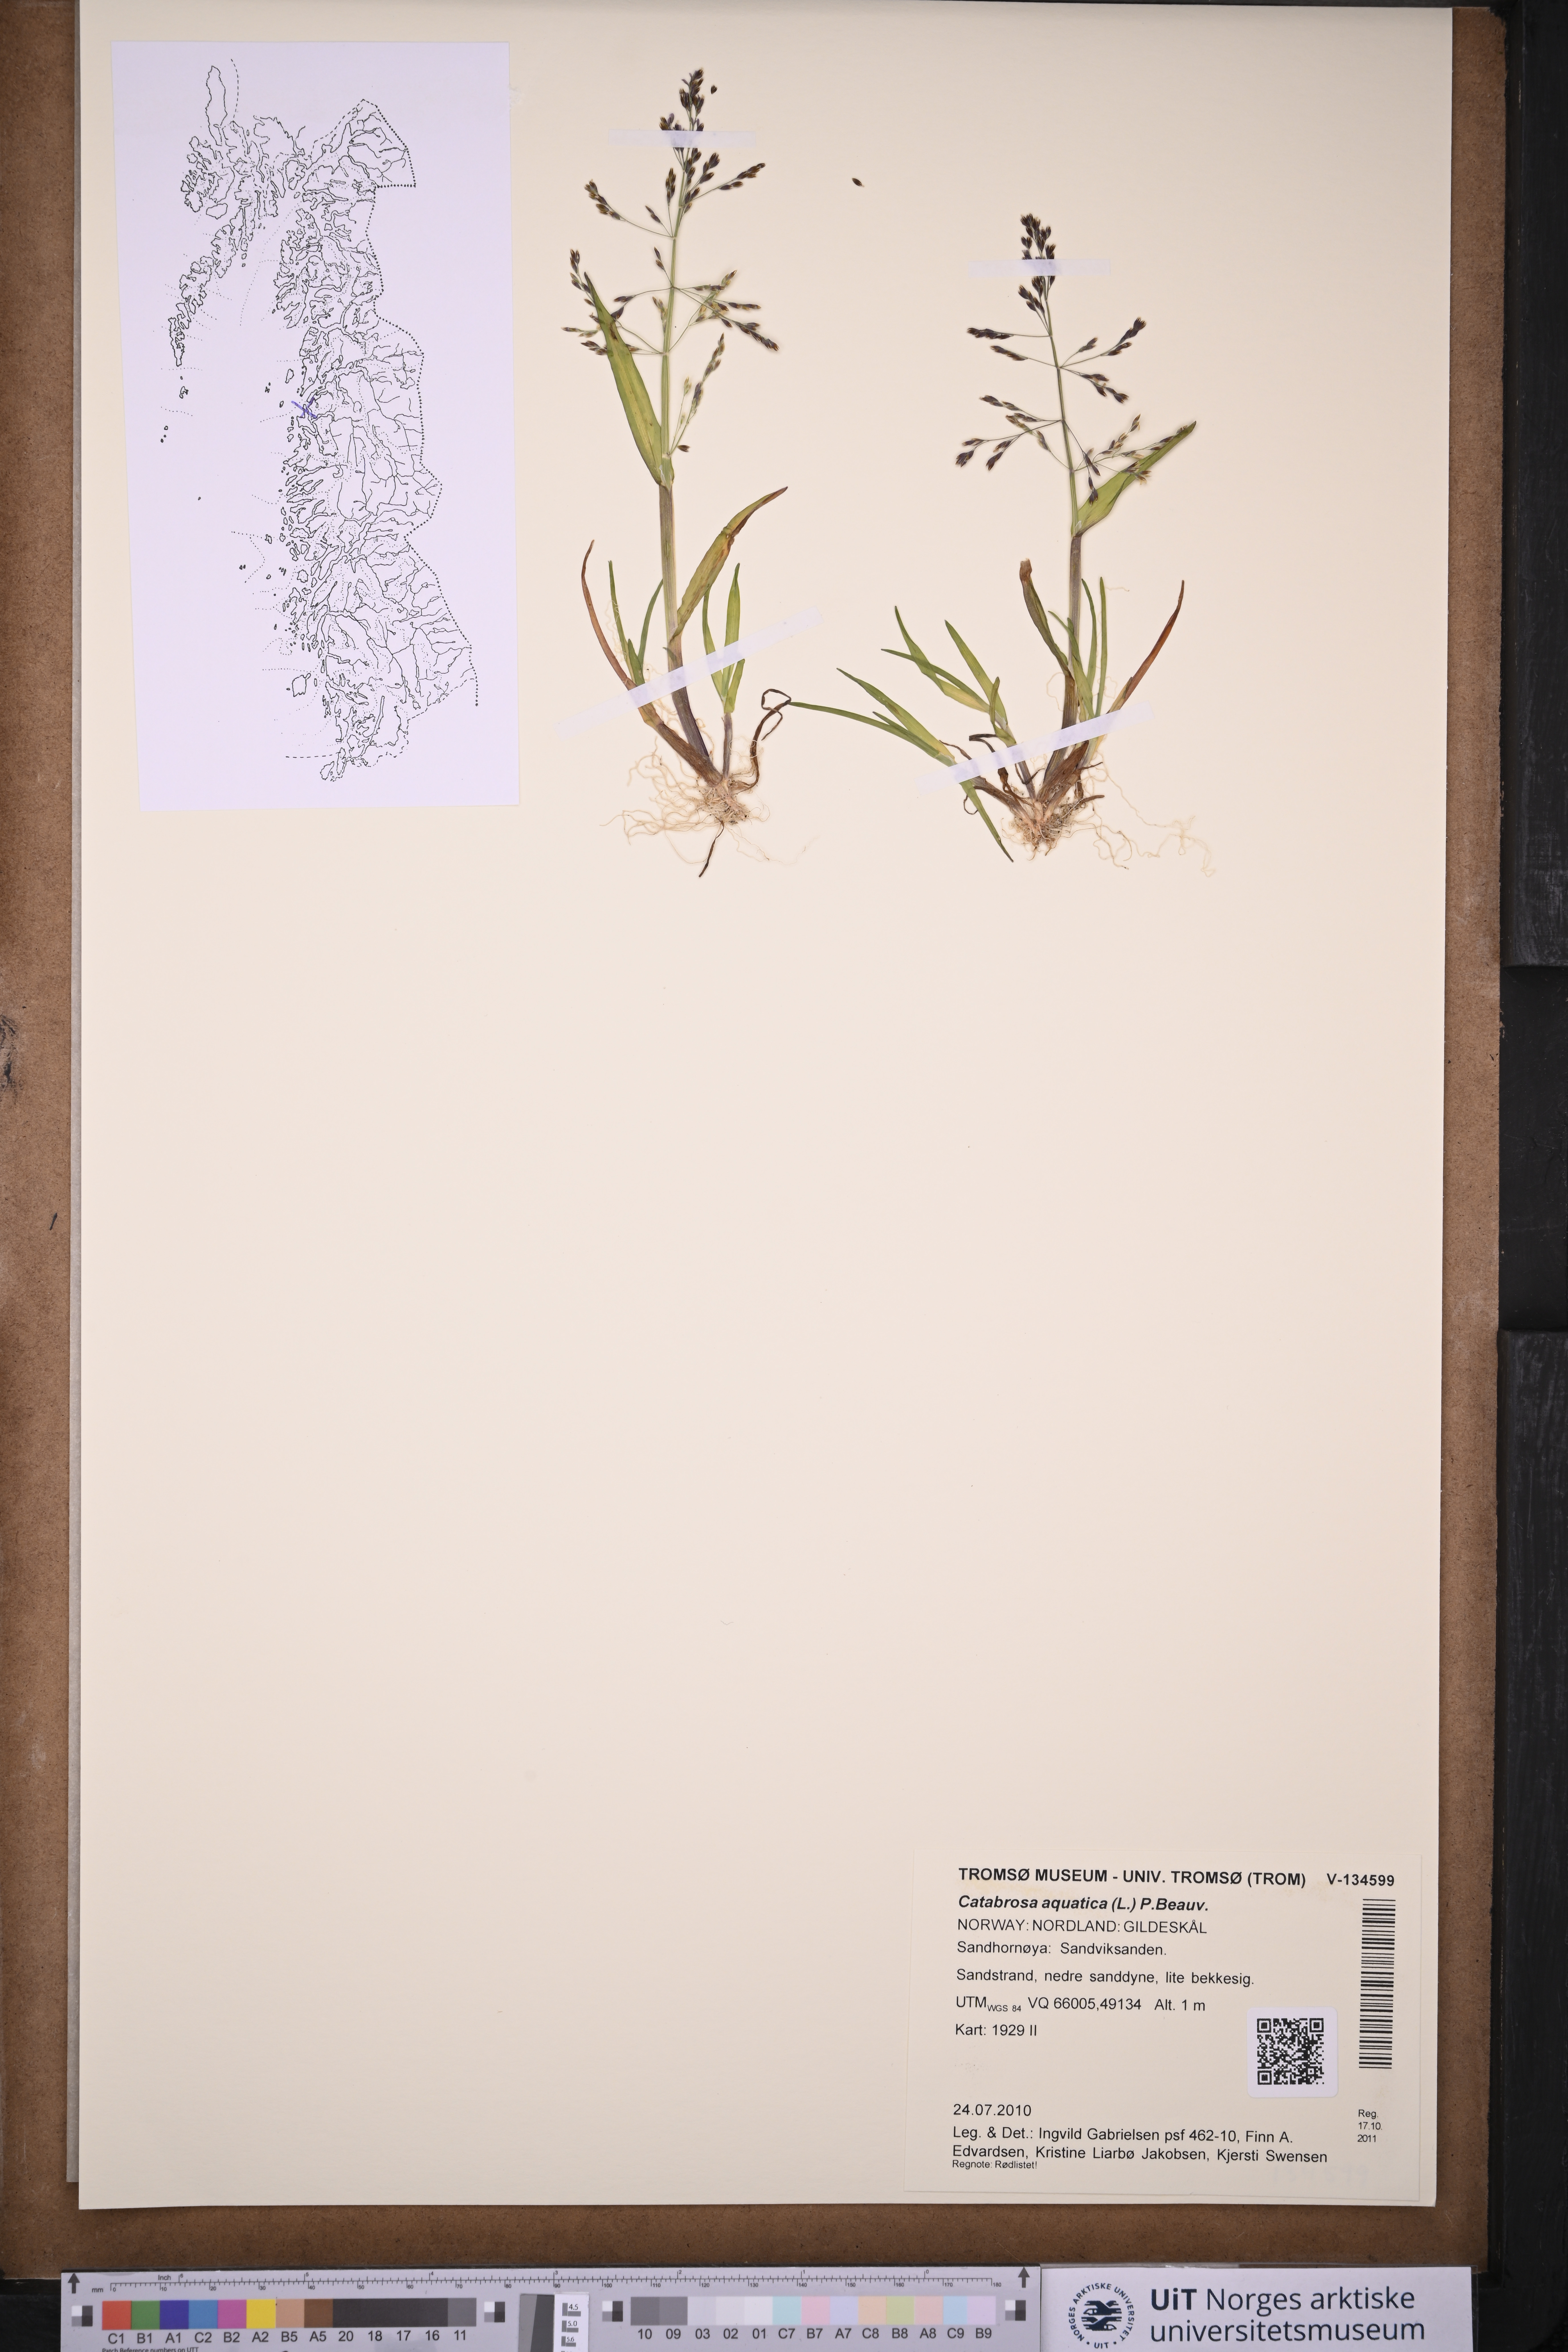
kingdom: Plantae
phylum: Tracheophyta
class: Liliopsida
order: Poales
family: Poaceae
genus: Catabrosa
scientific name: Catabrosa aquatica
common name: Whorl-grass
